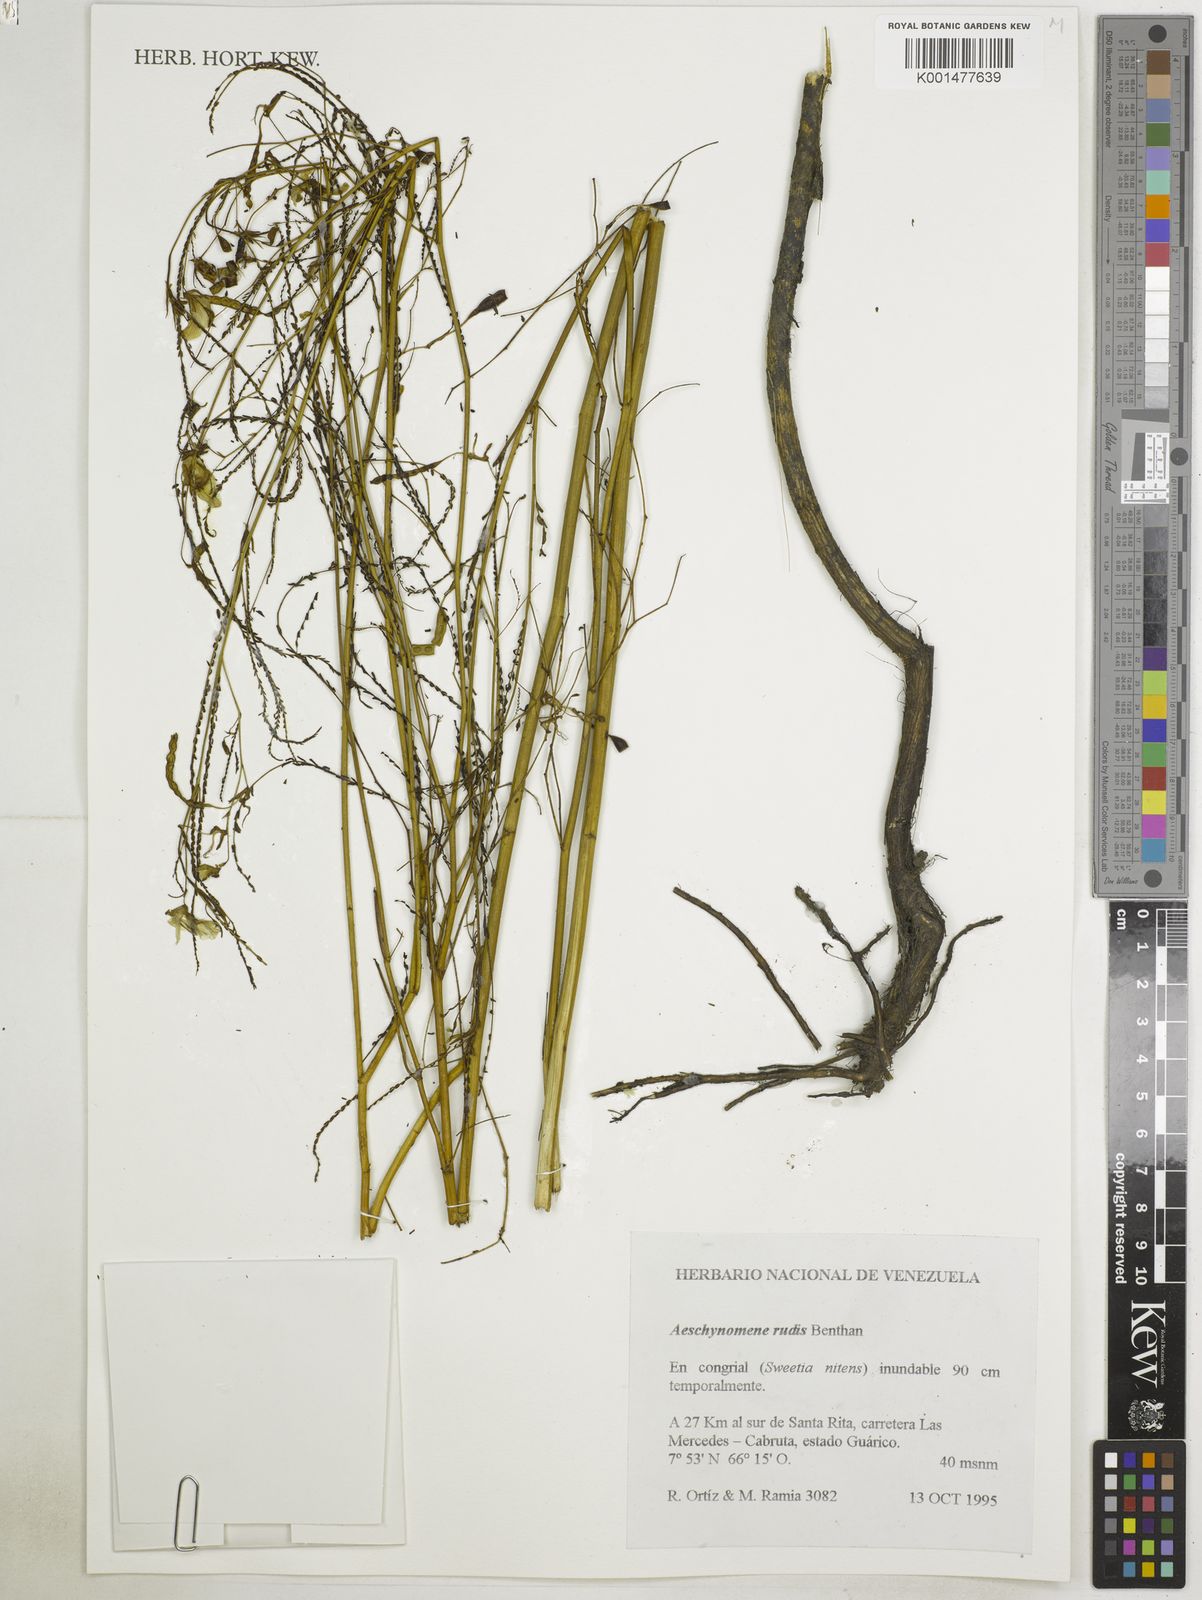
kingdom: Plantae
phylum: Tracheophyta
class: Magnoliopsida
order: Fabales
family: Fabaceae
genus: Aeschynomene
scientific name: Aeschynomene rudis
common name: Rough joint-vetch
